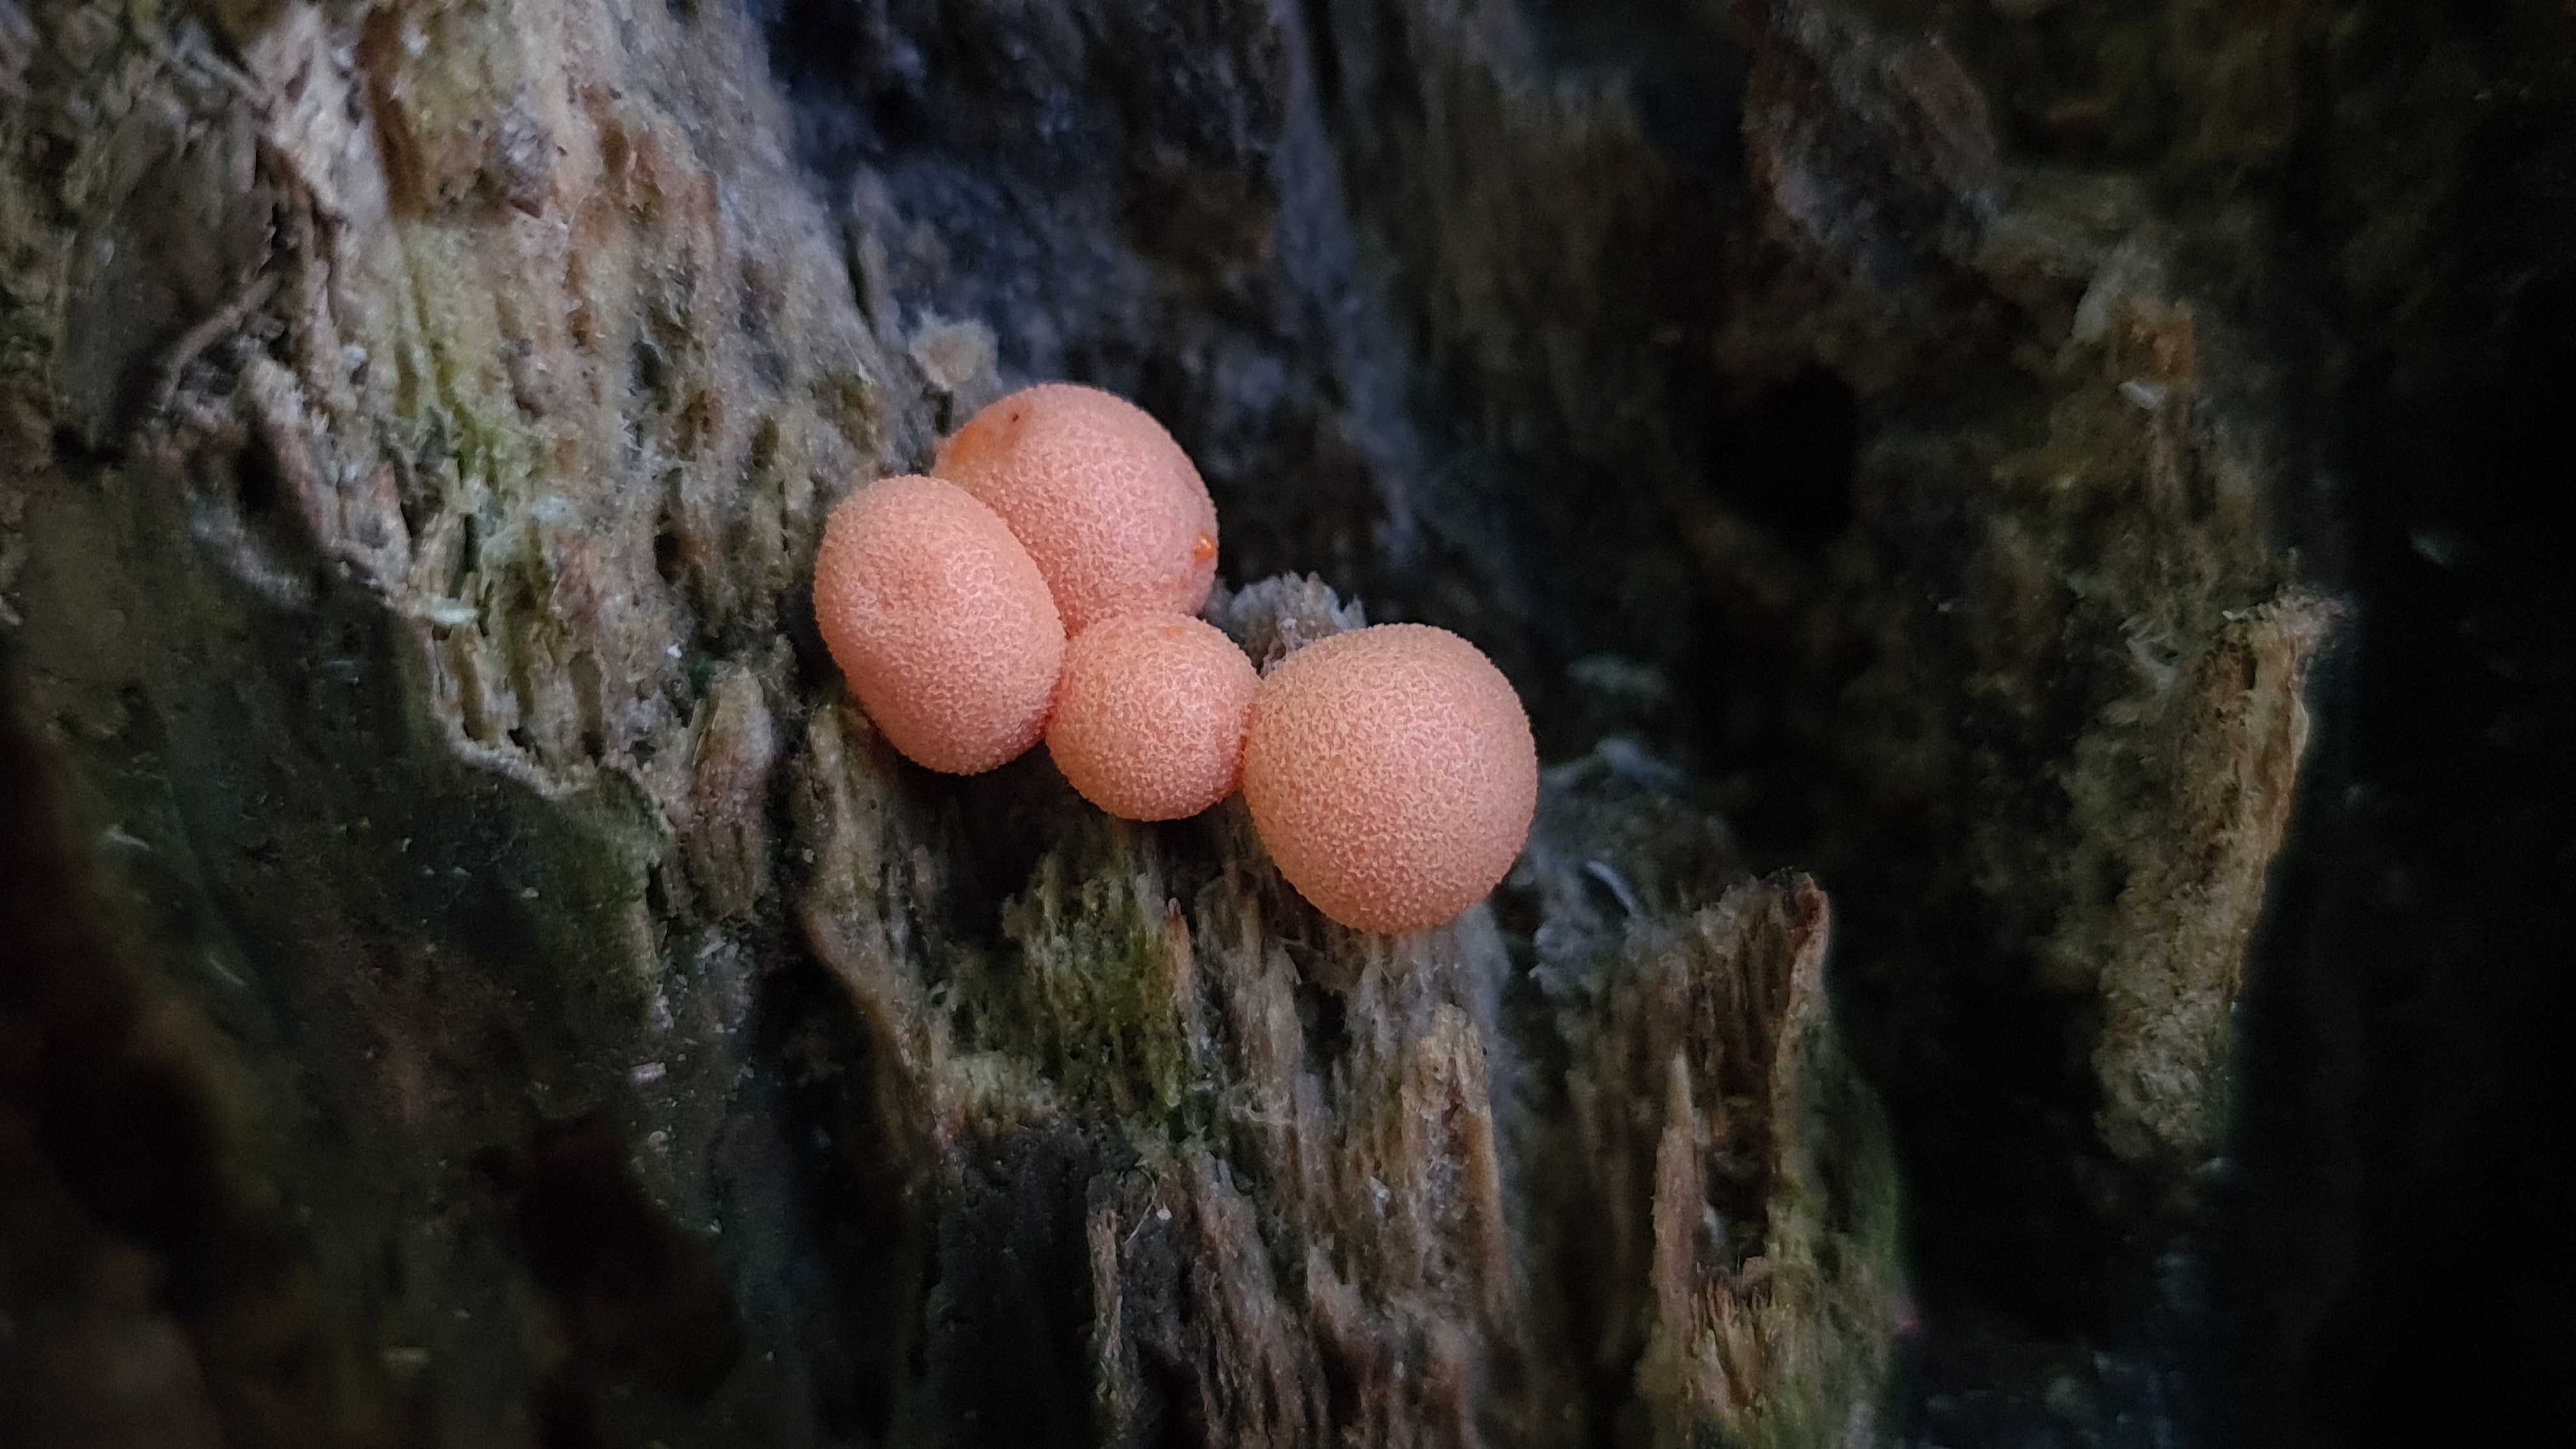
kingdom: Protozoa
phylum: Mycetozoa
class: Myxomycetes
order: Cribrariales
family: Tubiferaceae
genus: Lycogala
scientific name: Lycogala epidendrum
